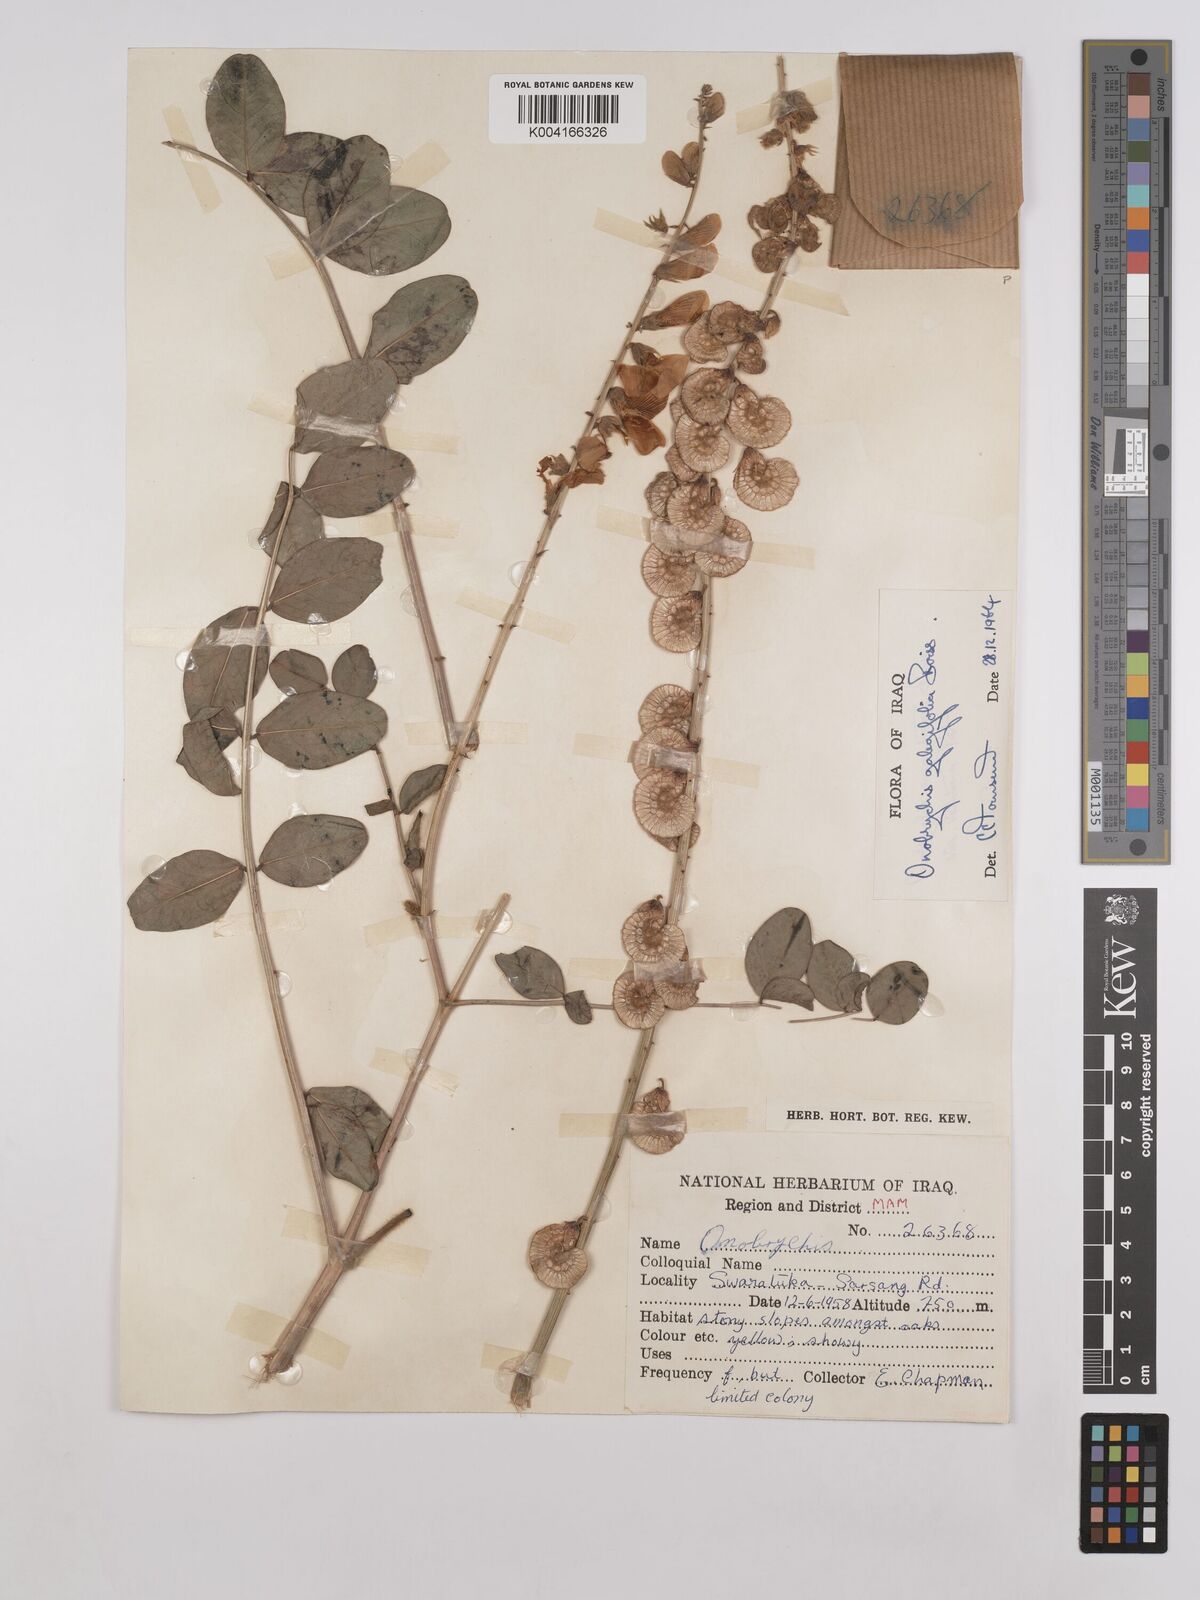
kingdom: Plantae
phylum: Tracheophyta
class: Magnoliopsida
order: Fabales
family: Fabaceae
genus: Onobrychis
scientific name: Onobrychis galegifolia
